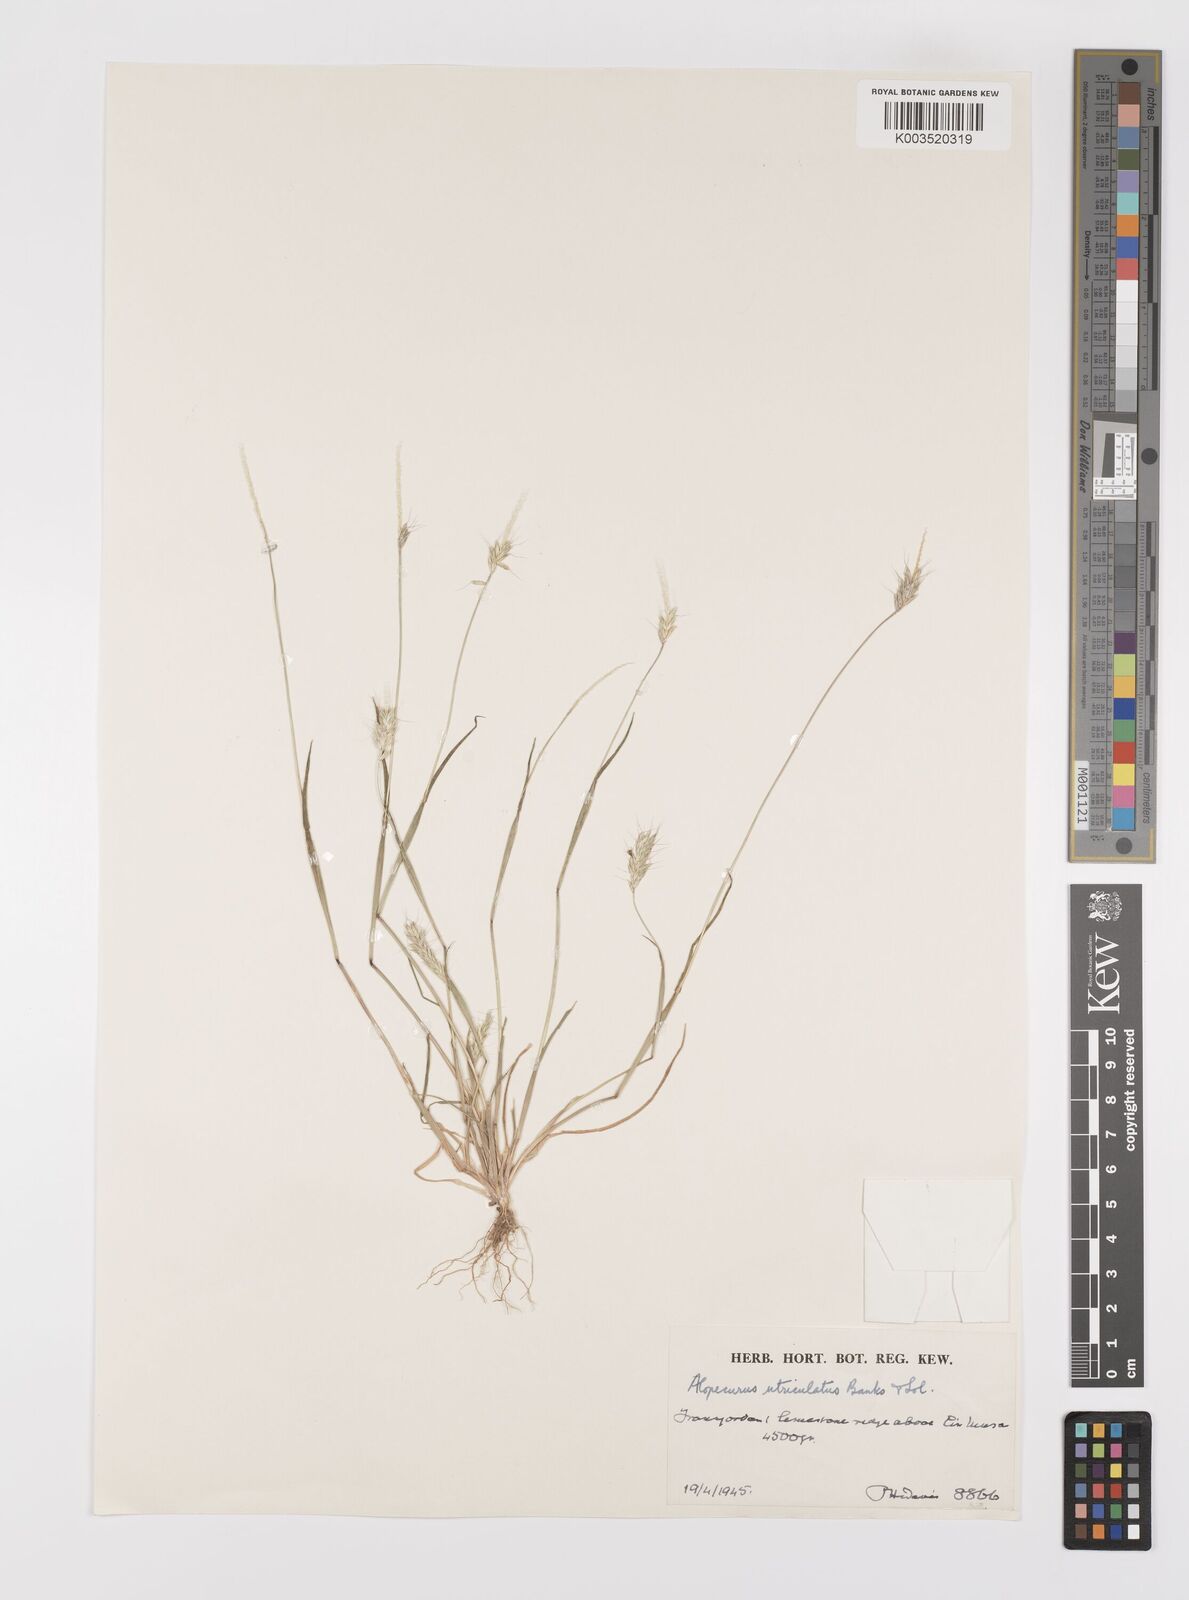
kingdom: Plantae
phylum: Tracheophyta
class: Liliopsida
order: Poales
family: Poaceae
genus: Alopecurus
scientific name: Alopecurus utriculatus
